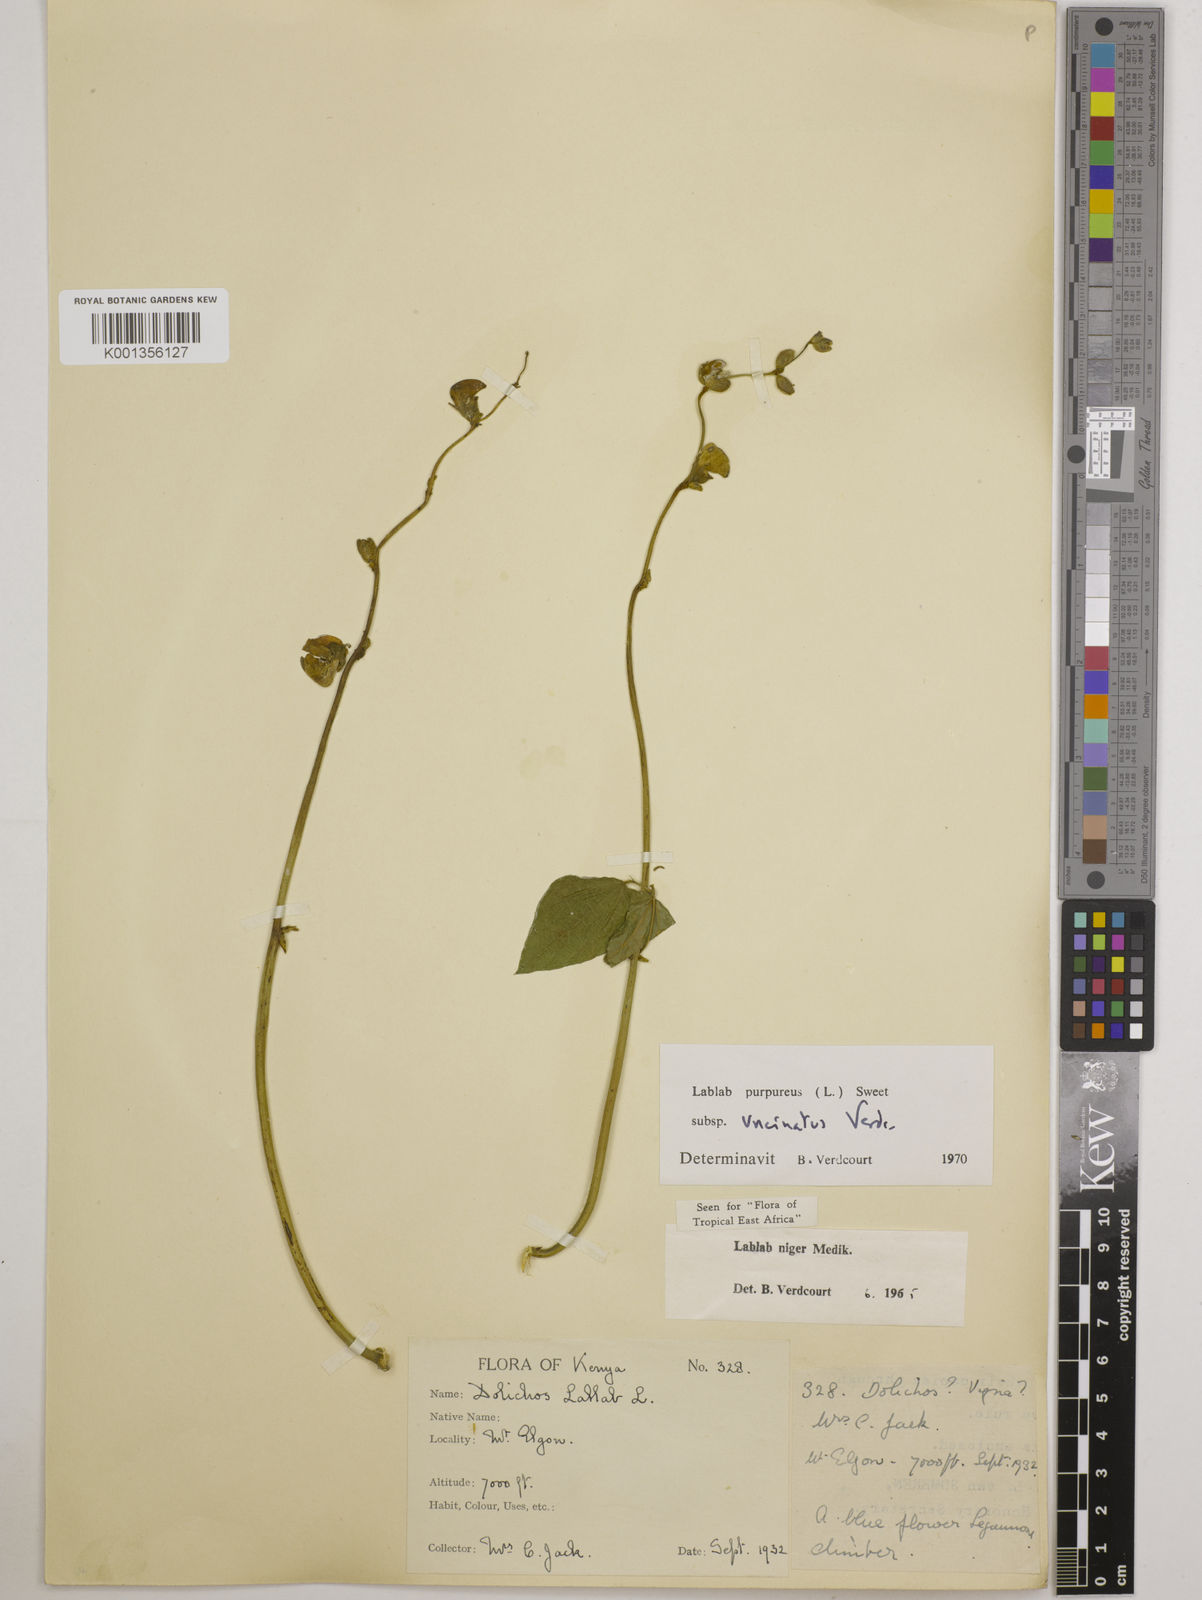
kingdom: Plantae
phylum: Tracheophyta
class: Magnoliopsida
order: Fabales
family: Fabaceae
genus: Lablab
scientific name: Lablab purpureus
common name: Lablab-bean
